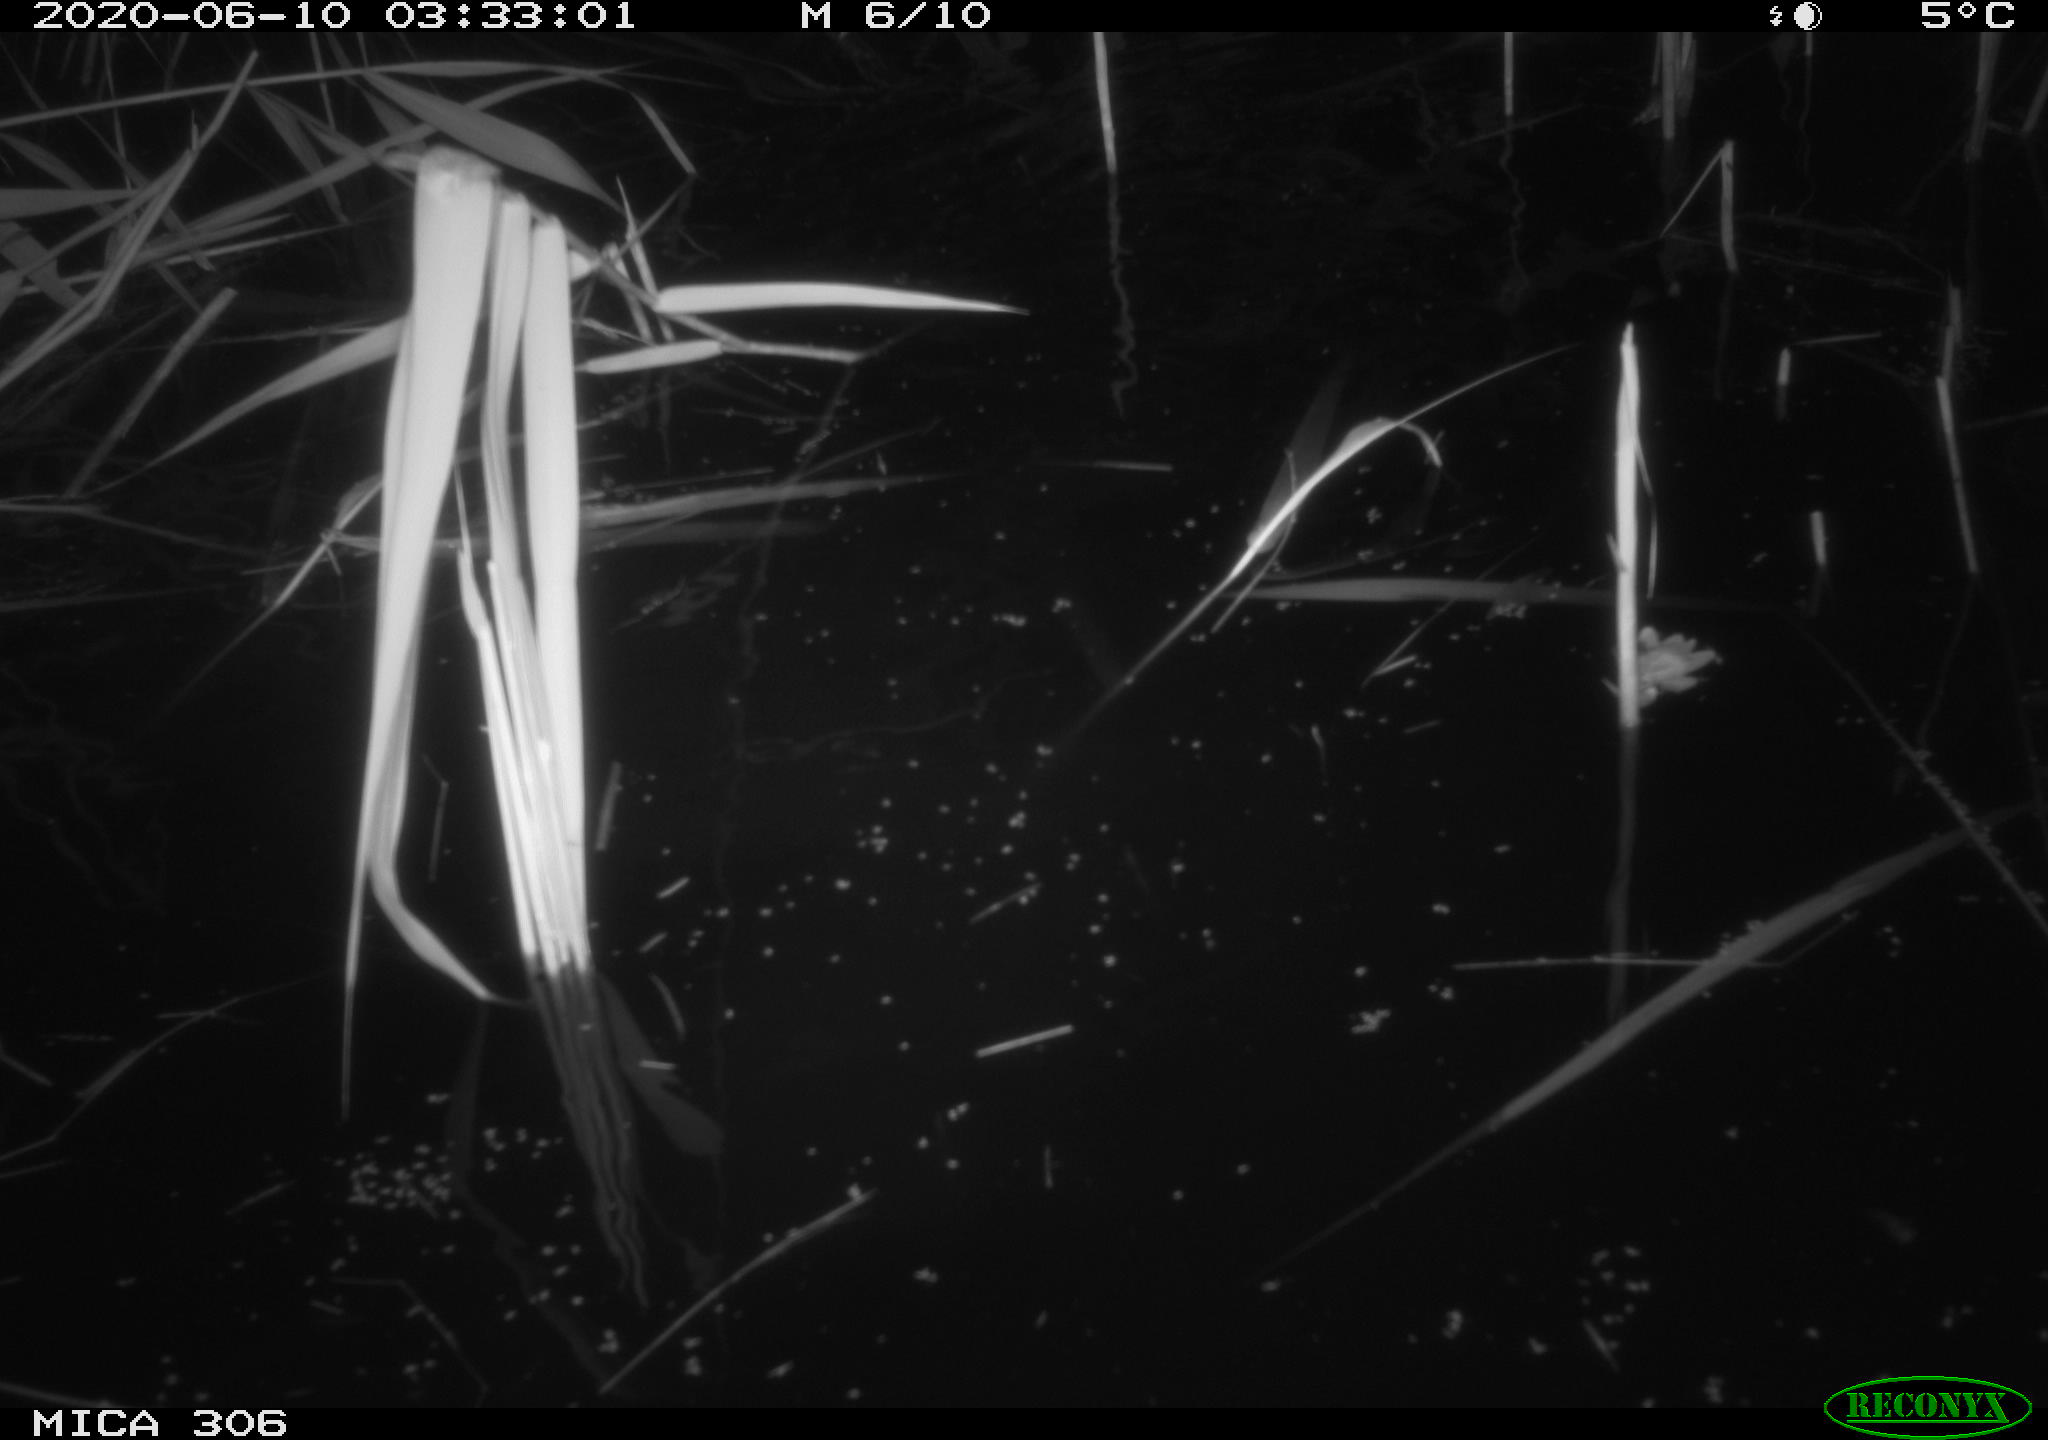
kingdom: Animalia
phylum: Chordata
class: Mammalia
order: Rodentia
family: Muridae
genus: Rattus
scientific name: Rattus norvegicus
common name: Brown rat
